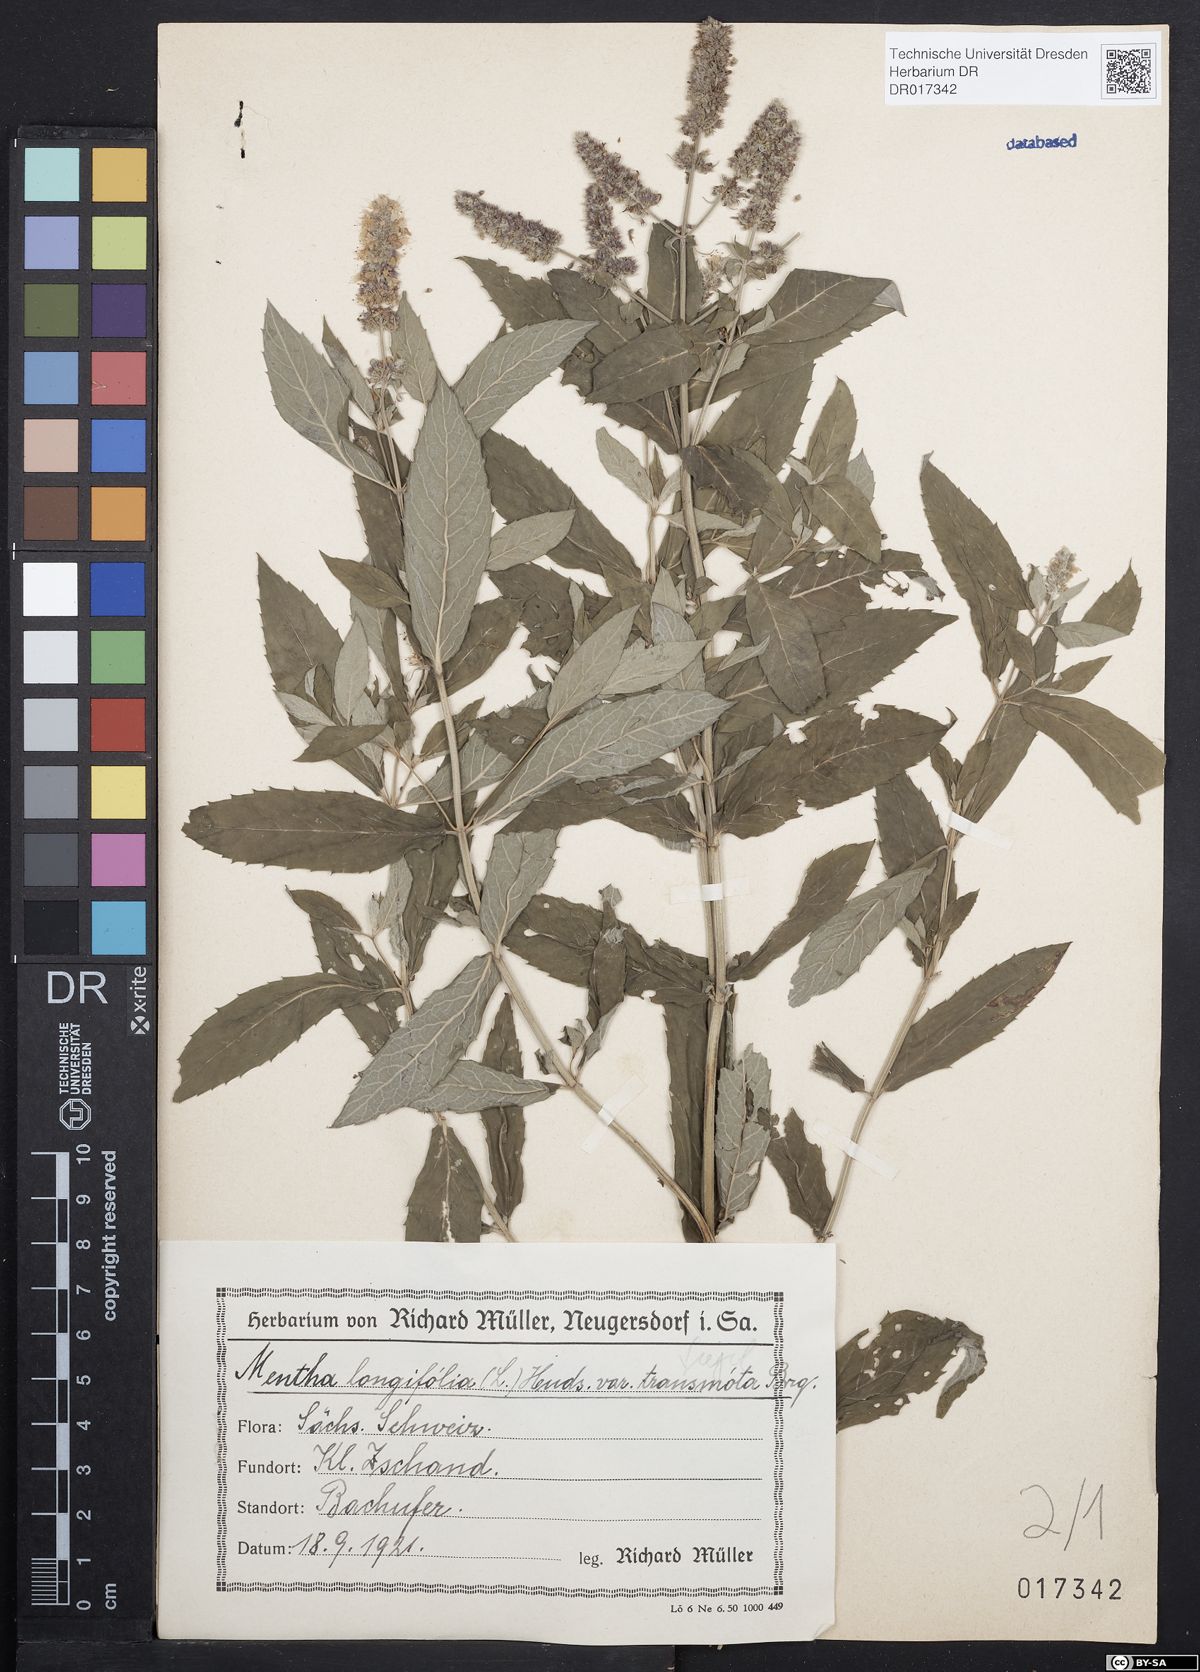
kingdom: Plantae
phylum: Tracheophyta
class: Magnoliopsida
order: Lamiales
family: Lamiaceae
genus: Mentha
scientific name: Mentha longifolia
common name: Horse mint
